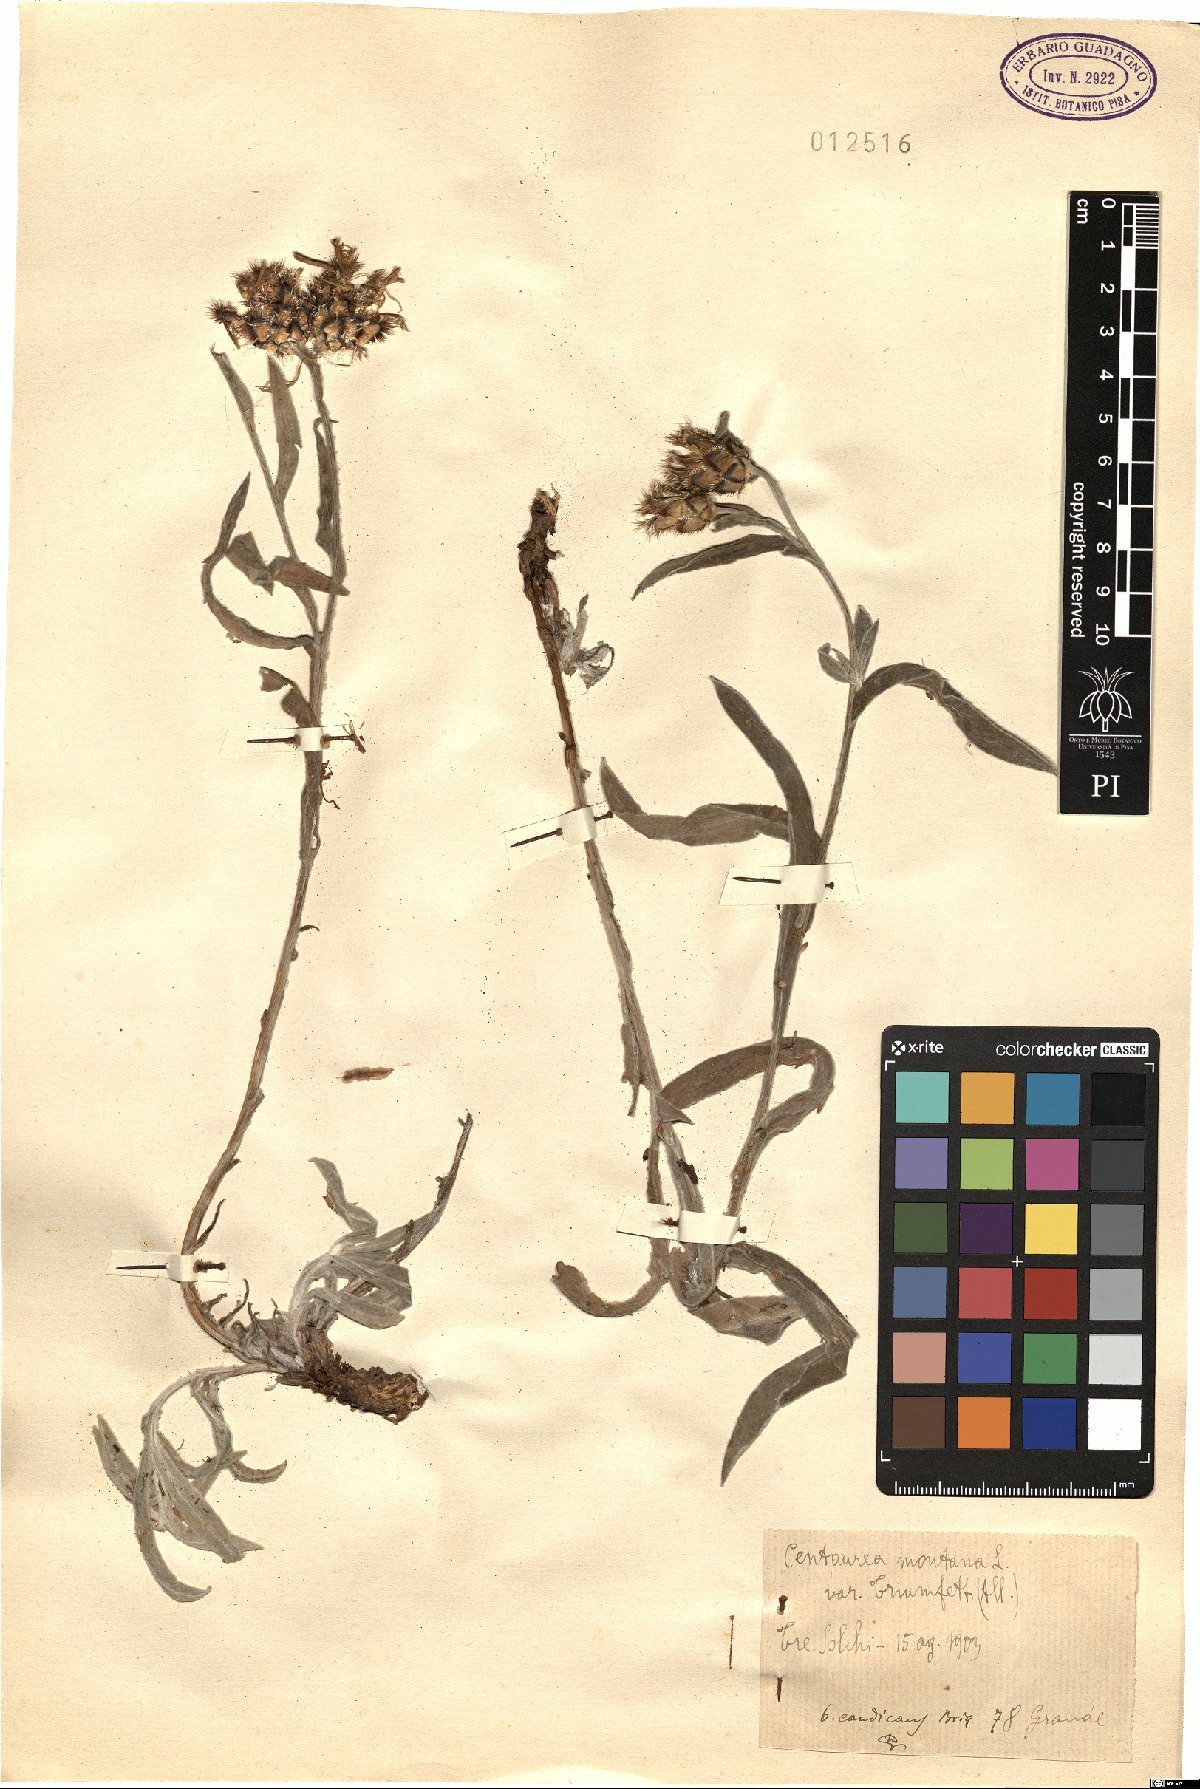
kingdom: Plantae
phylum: Tracheophyta
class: Magnoliopsida
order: Asterales
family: Asteraceae
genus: Centaurea
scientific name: Centaurea montana
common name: Perennial cornflower
